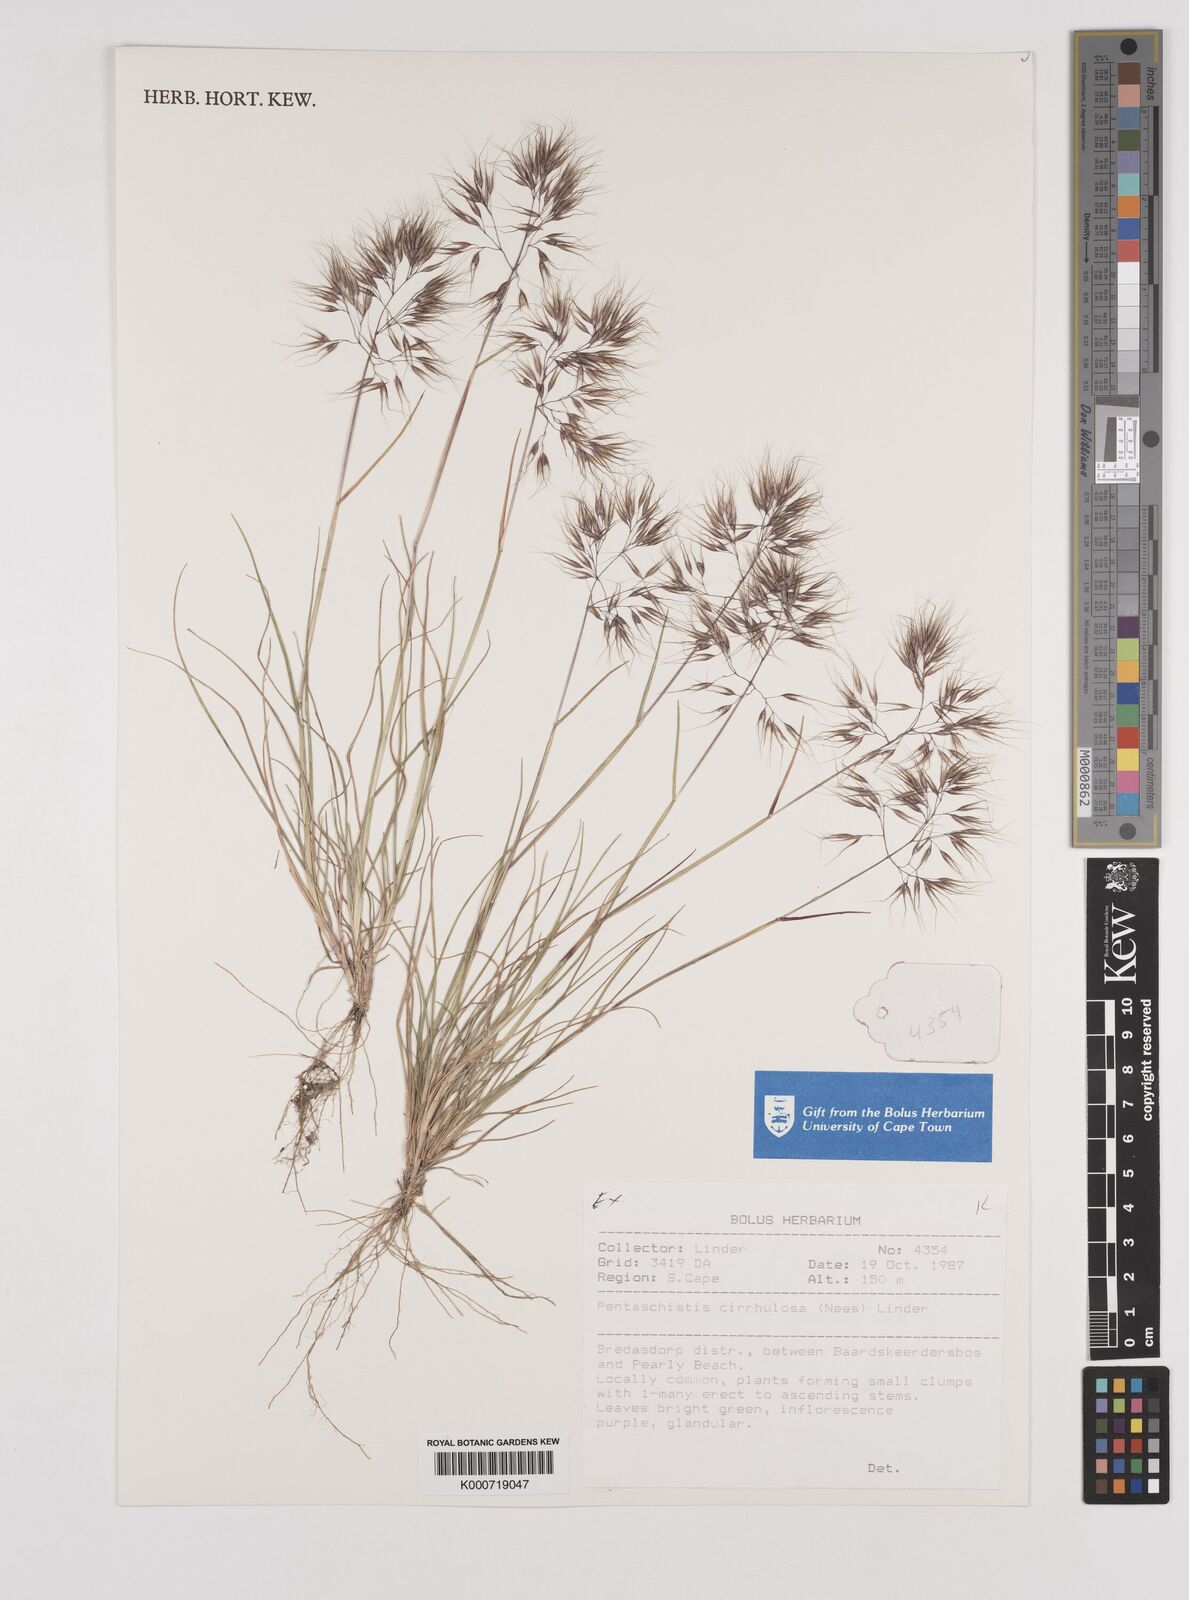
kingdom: Plantae
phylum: Tracheophyta
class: Liliopsida
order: Poales
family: Poaceae
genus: Pentameris
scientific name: Pentameris cirrhulosa
